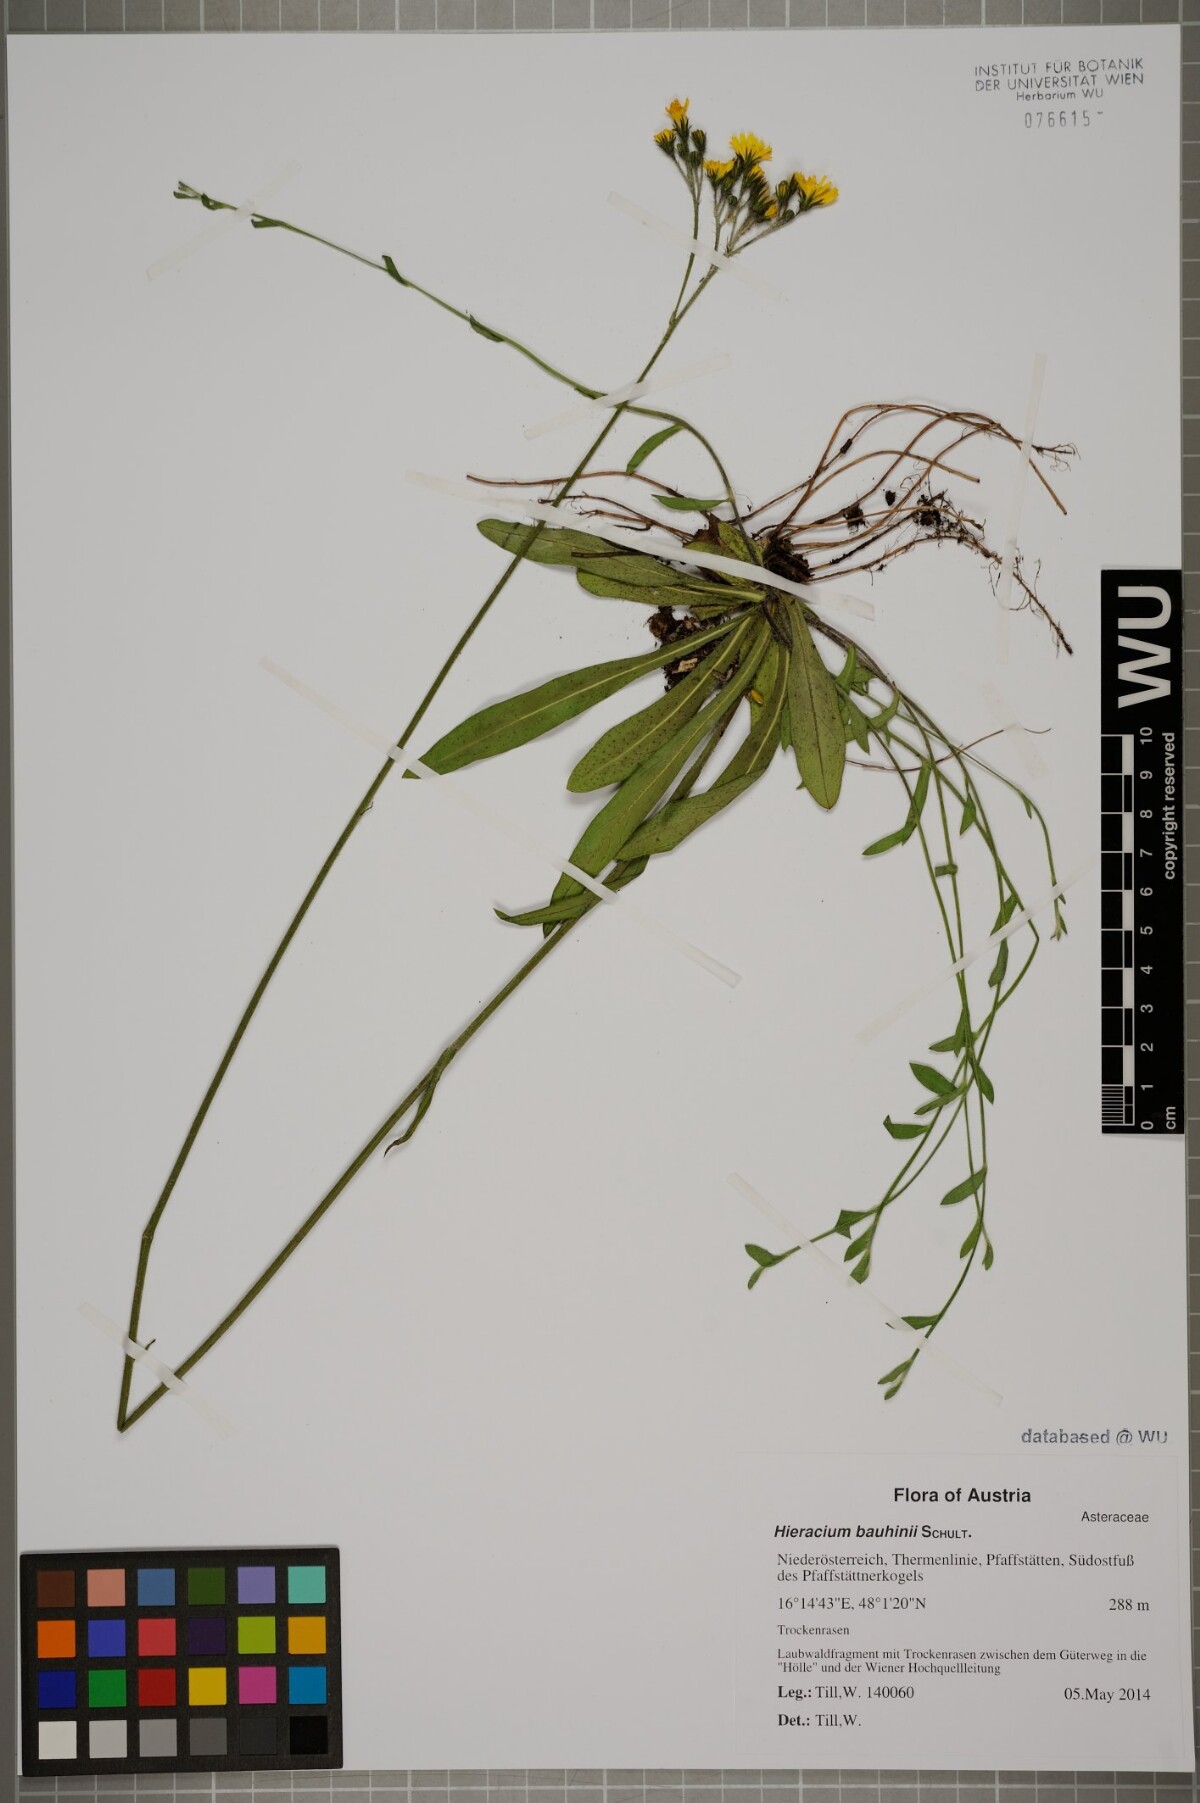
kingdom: Plantae
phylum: Tracheophyta
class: Magnoliopsida
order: Asterales
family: Asteraceae
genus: Pilosella
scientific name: Pilosella densiflora
